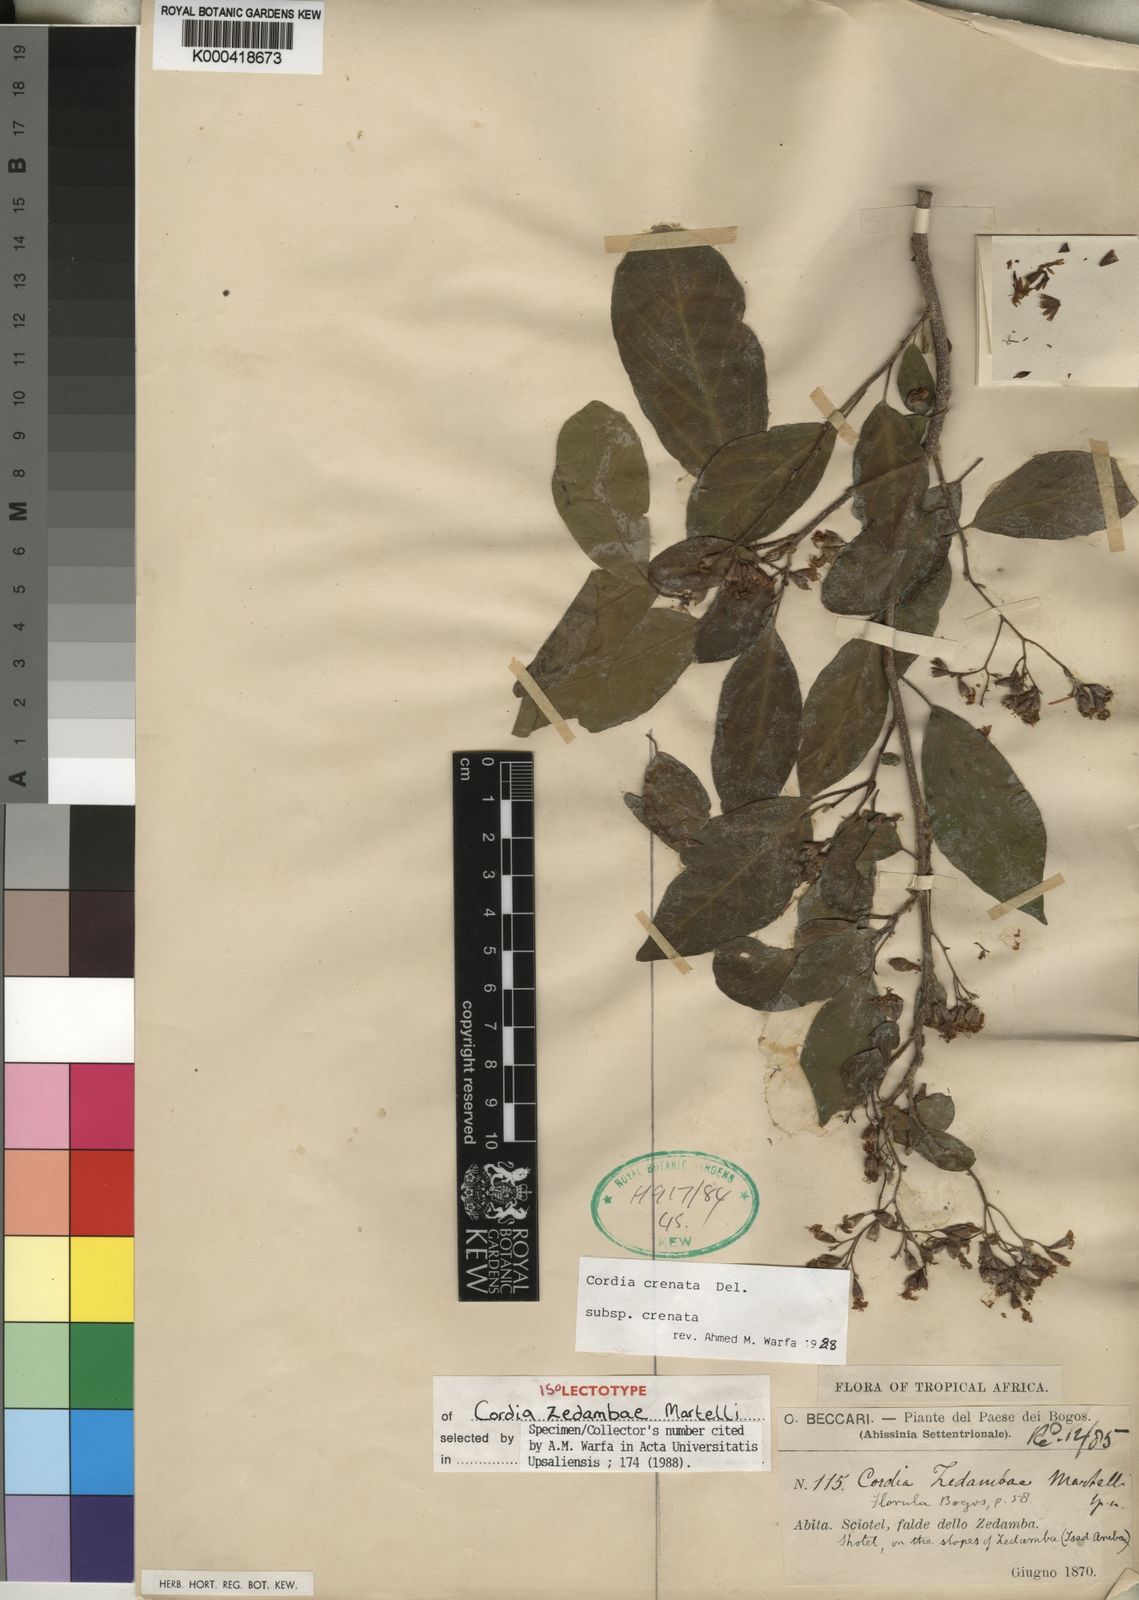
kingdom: Plantae
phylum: Tracheophyta
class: Magnoliopsida
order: Boraginales
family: Cordiaceae
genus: Cordia
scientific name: Cordia crenata
